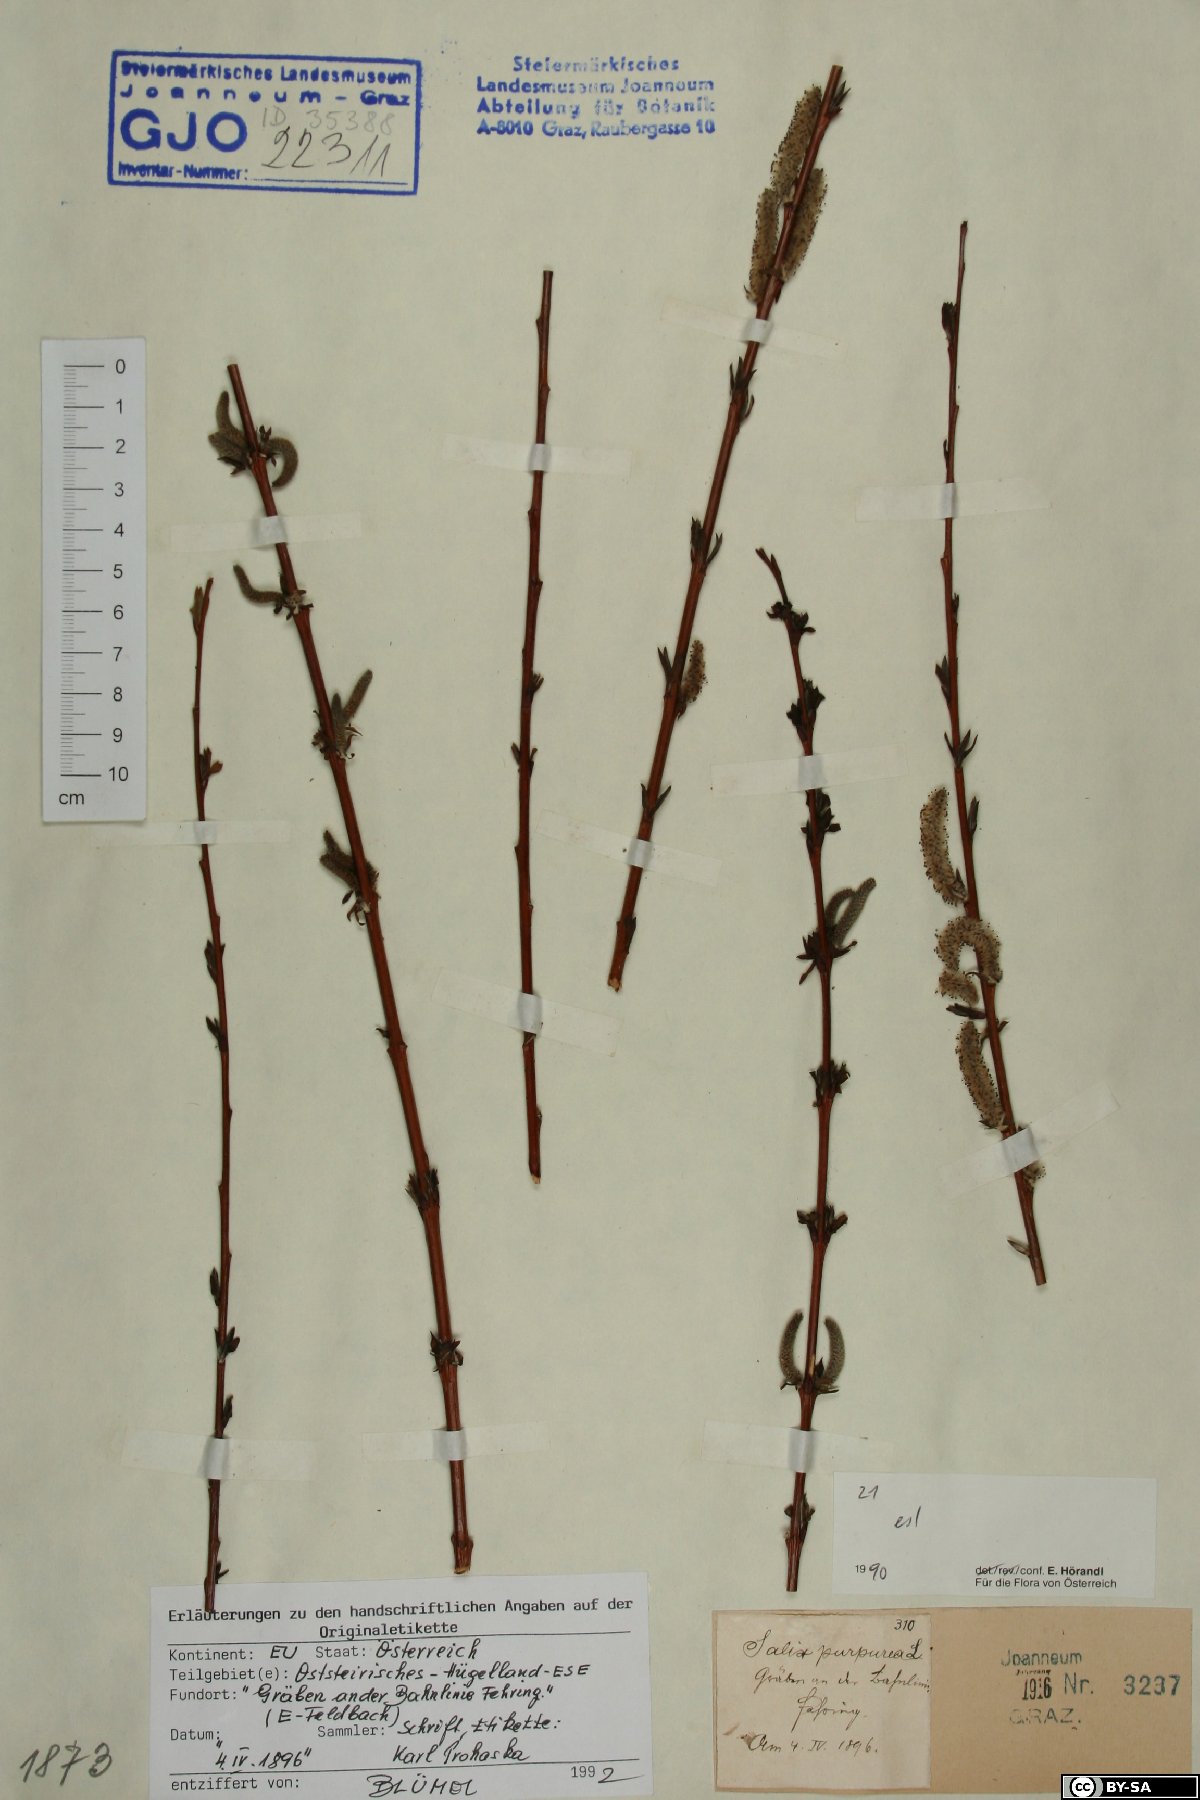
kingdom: Plantae
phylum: Tracheophyta
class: Magnoliopsida
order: Malpighiales
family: Salicaceae
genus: Salix
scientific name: Salix purpurea
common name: Purple willow
